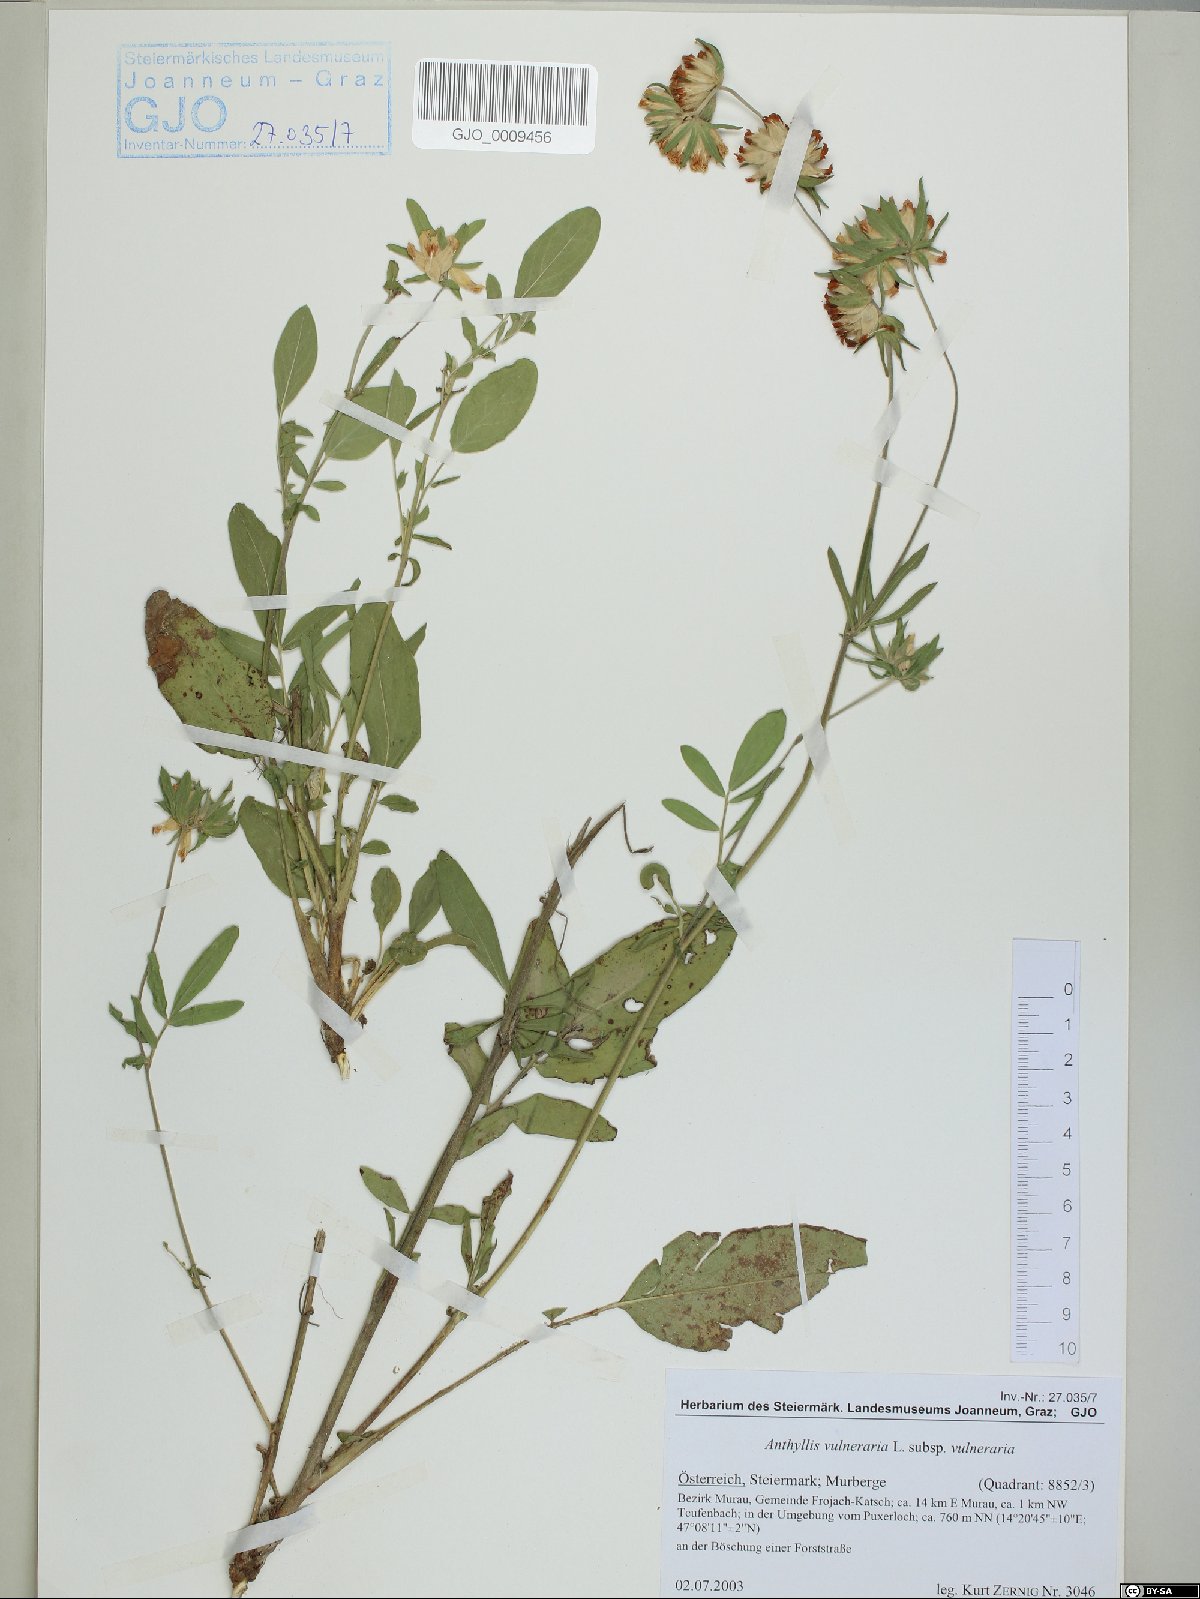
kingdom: Plantae
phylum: Tracheophyta
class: Magnoliopsida
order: Fabales
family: Fabaceae
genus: Anthyllis
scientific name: Anthyllis vulneraria
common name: Kidney vetch
